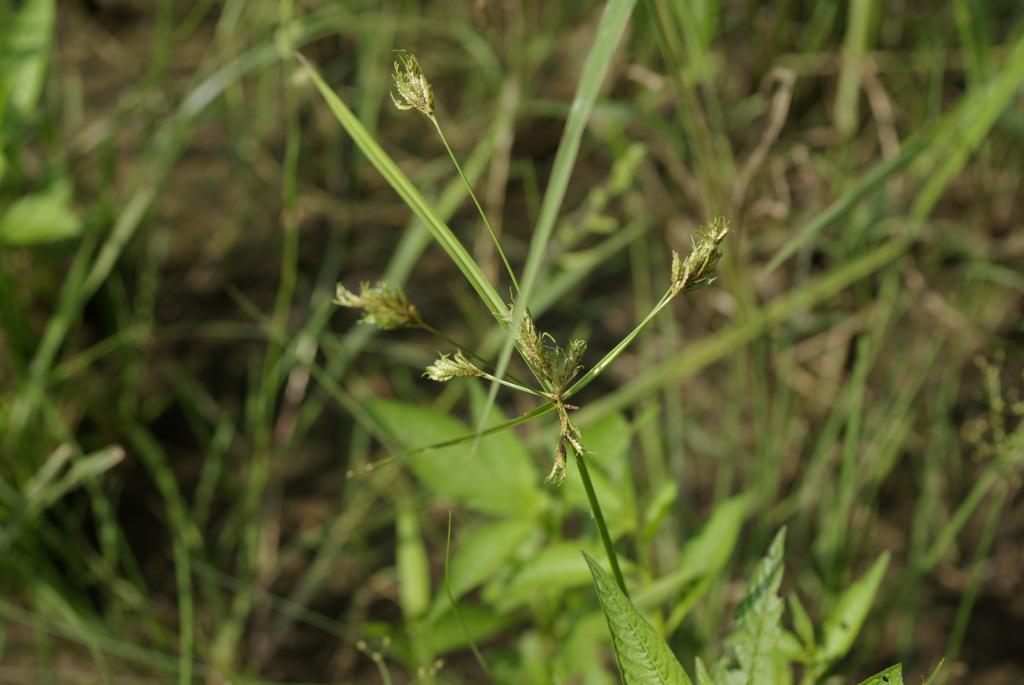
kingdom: Plantae
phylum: Tracheophyta
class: Liliopsida
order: Poales
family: Cyperaceae
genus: Cyperus
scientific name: Cyperus iria
